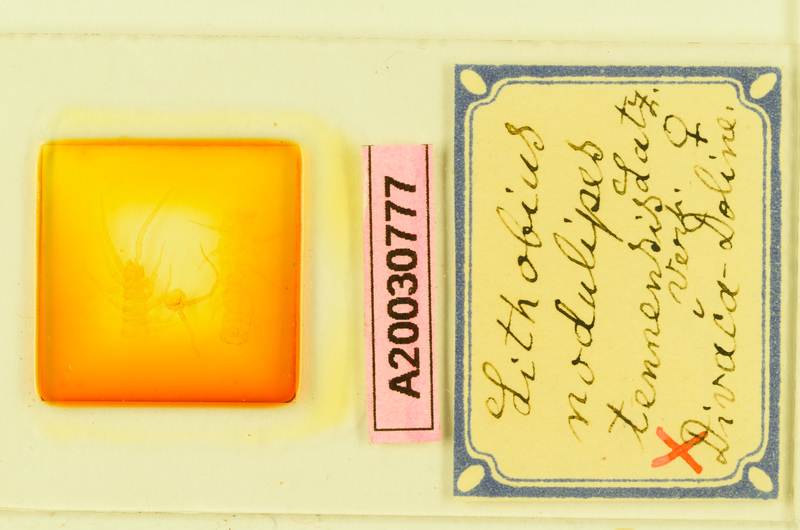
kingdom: Animalia
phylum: Arthropoda
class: Chilopoda
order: Lithobiomorpha
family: Lithobiidae
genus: Lithobius
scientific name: Lithobius nodulipes
